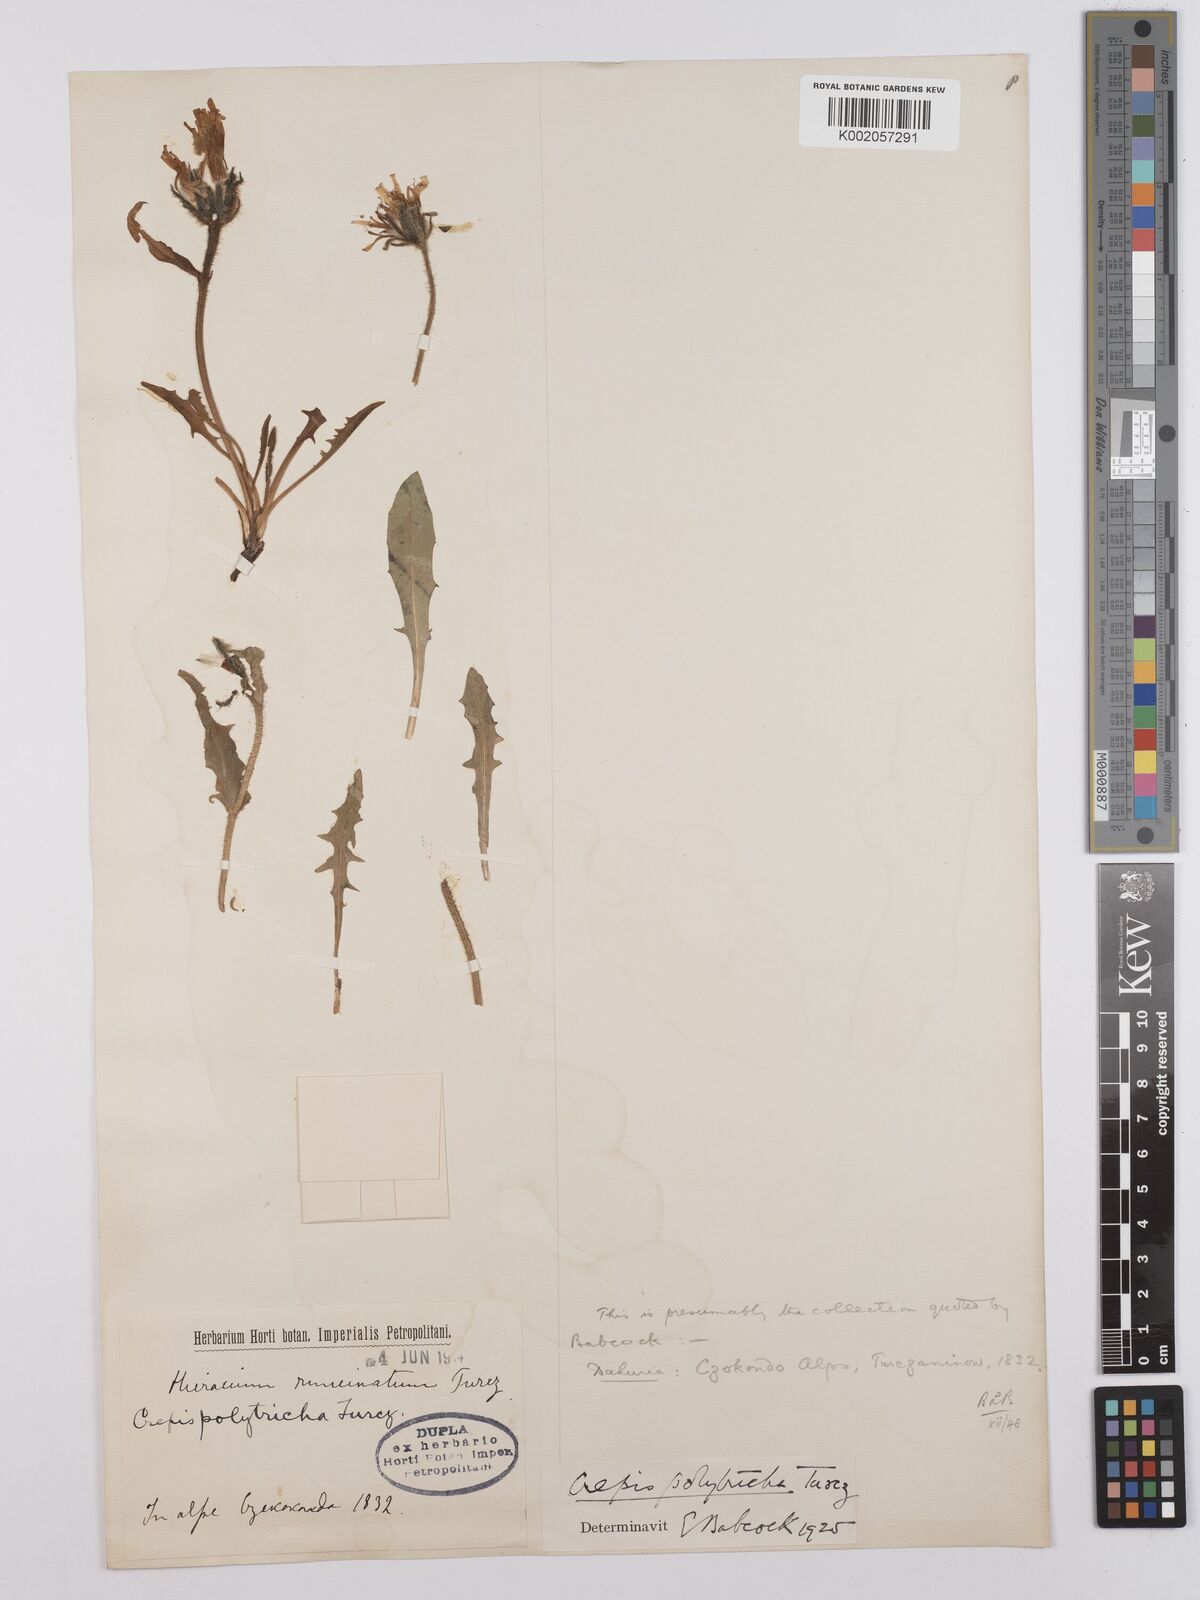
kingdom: Plantae
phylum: Tracheophyta
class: Magnoliopsida
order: Asterales
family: Asteraceae
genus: Crepis
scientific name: Crepis chrysantha
